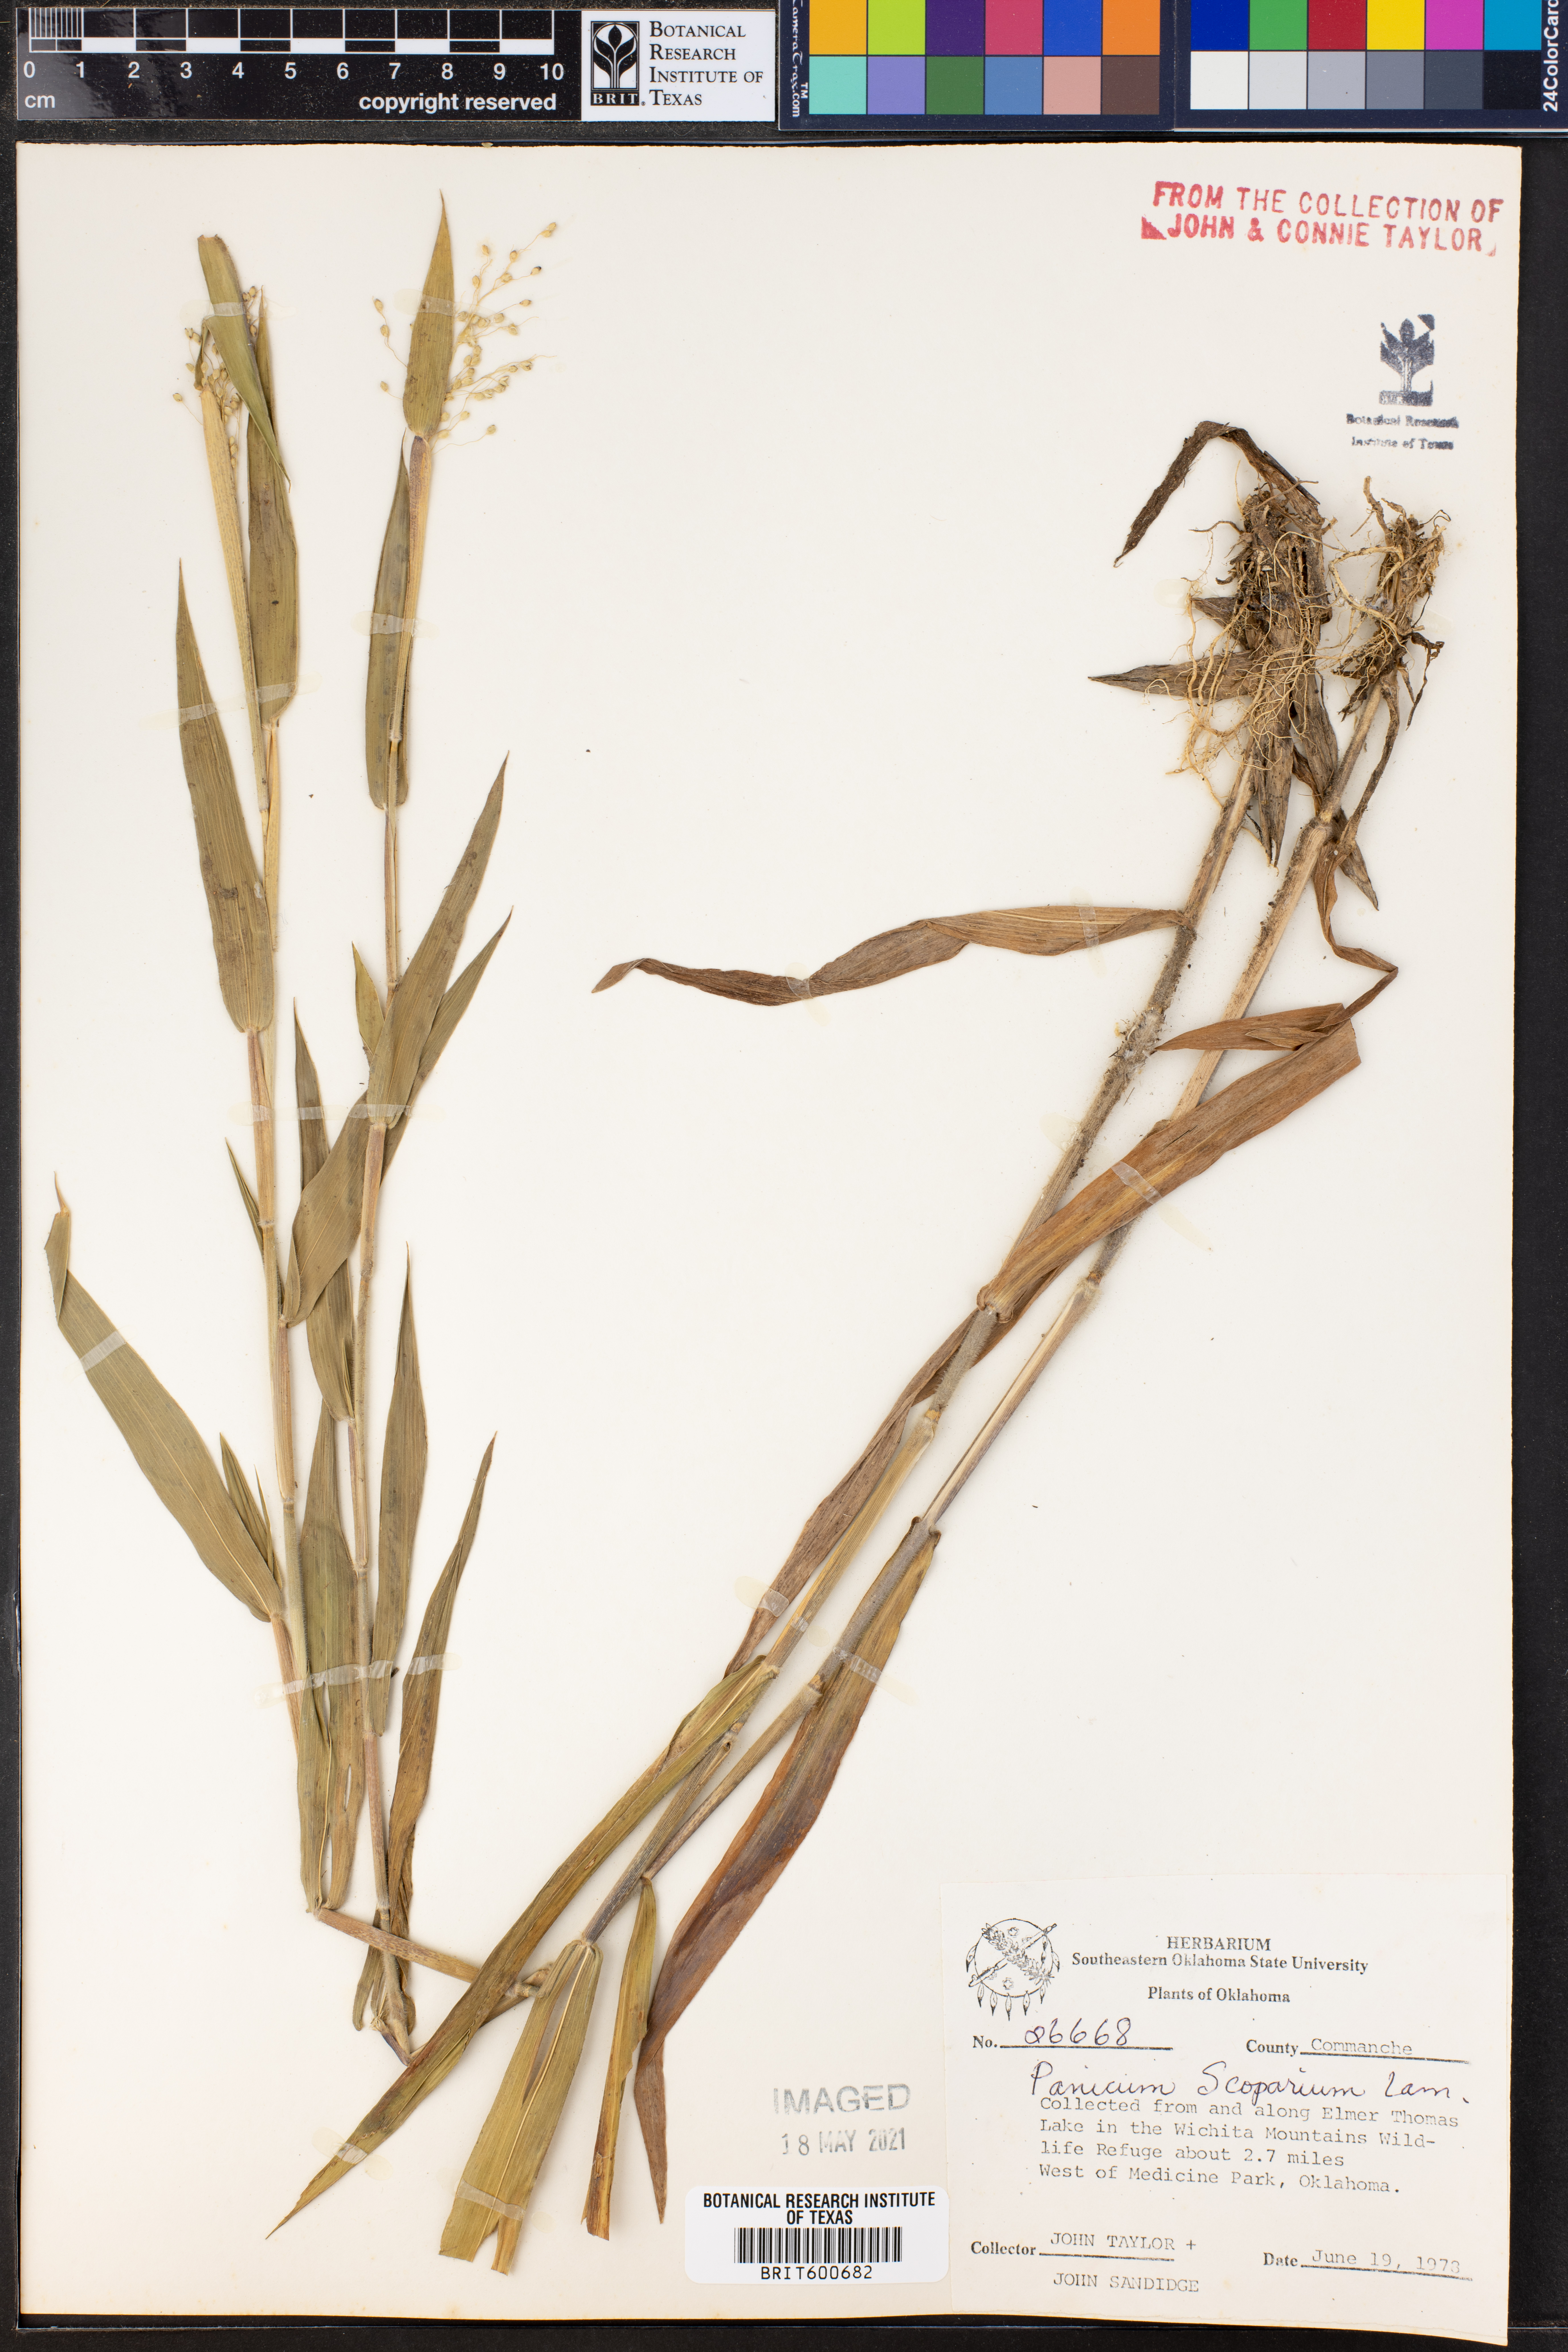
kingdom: Plantae
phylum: Tracheophyta
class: Liliopsida
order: Poales
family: Poaceae
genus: Dichanthelium
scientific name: Dichanthelium scribnerianum
